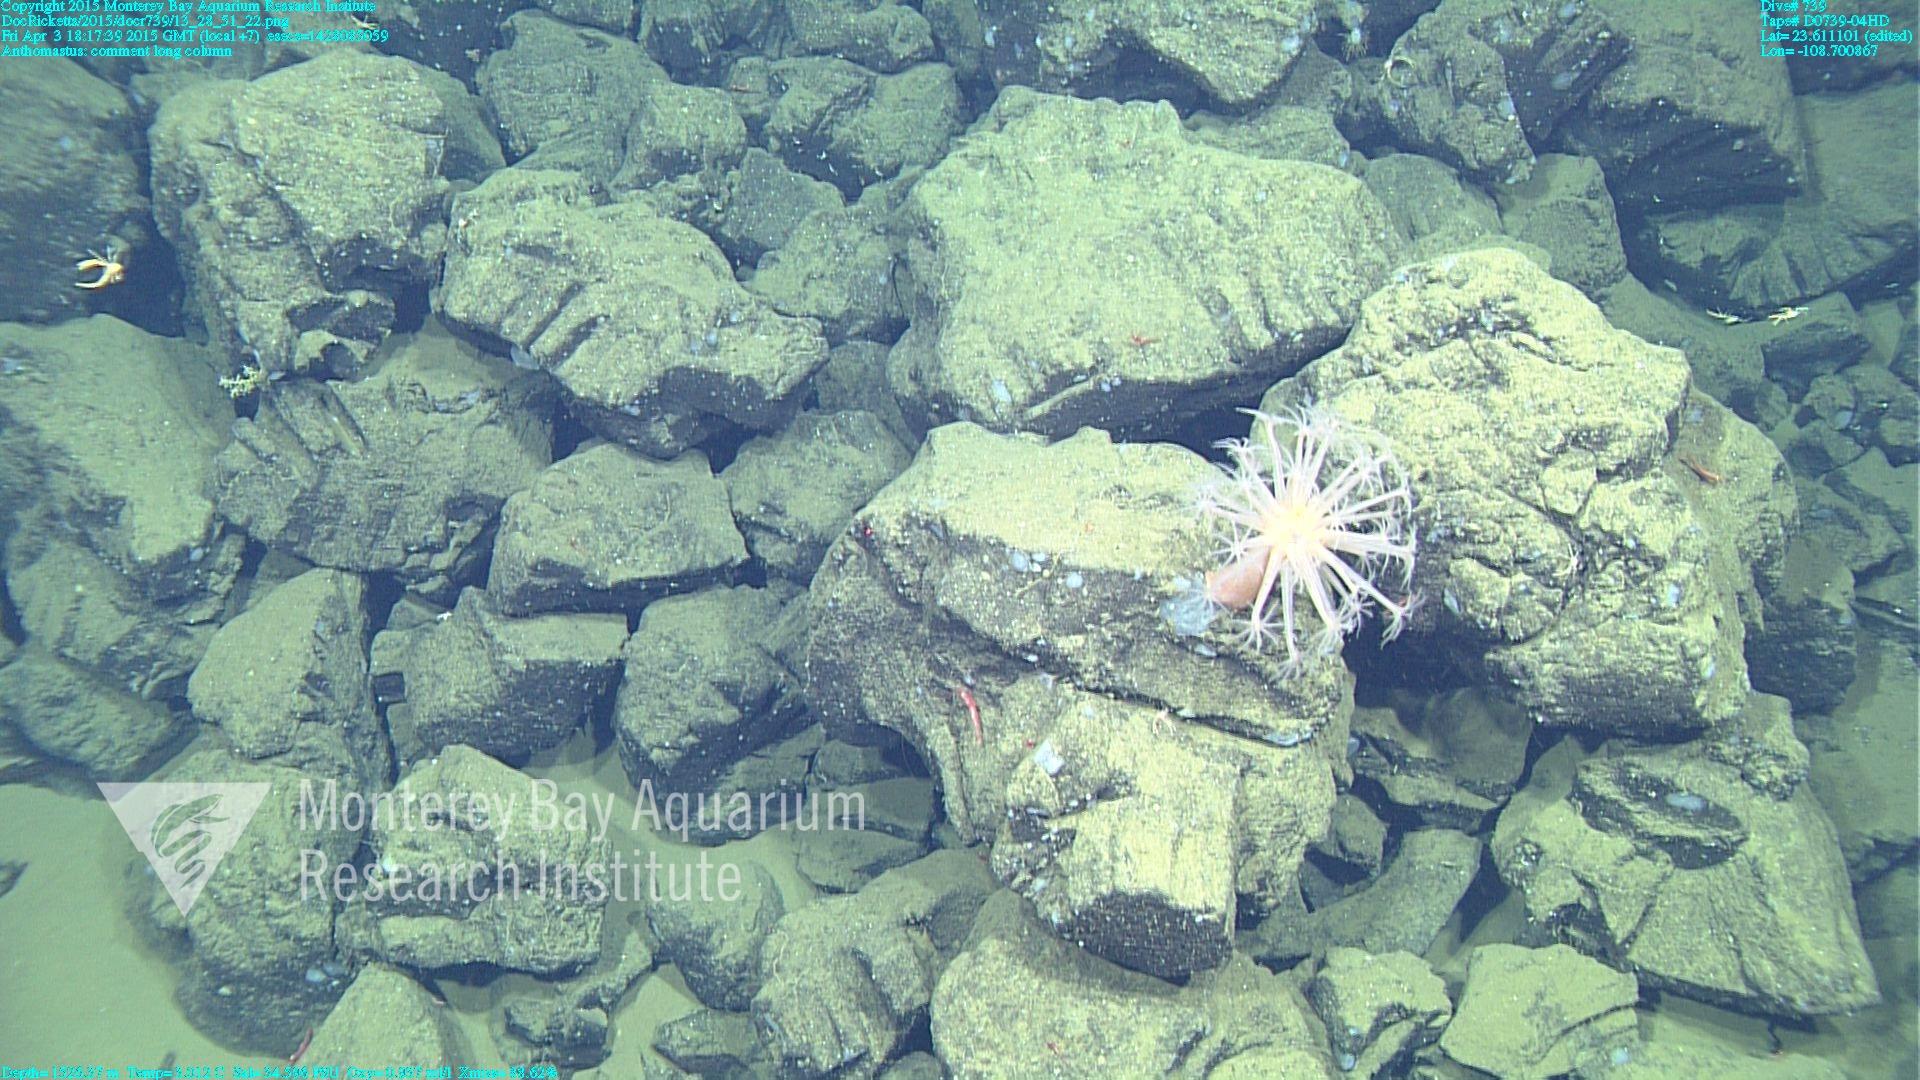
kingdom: Animalia
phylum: Cnidaria
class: Anthozoa
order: Scleralcyonacea
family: Coralliidae
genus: Heteropolypus
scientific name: Heteropolypus
